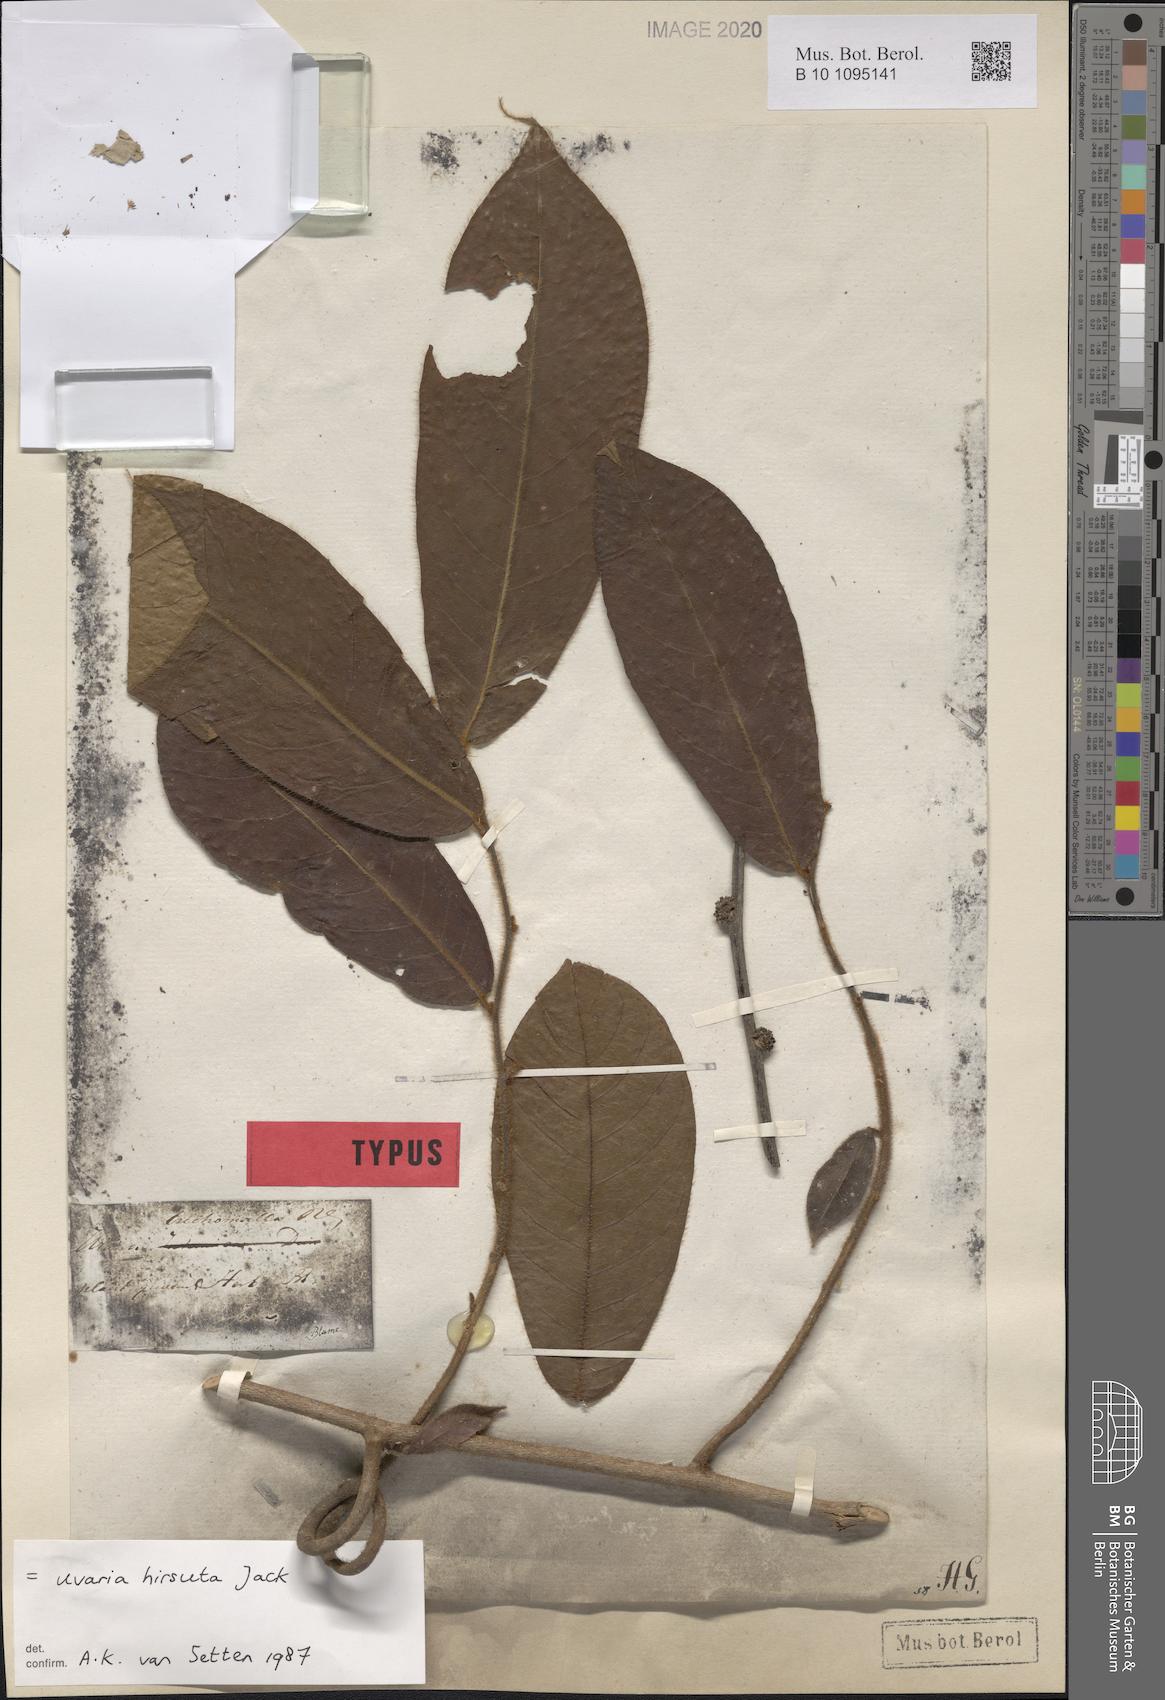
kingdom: Plantae
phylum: Tracheophyta
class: Magnoliopsida
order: Magnoliales
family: Annonaceae
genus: Uvaria
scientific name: Uvaria hirsuta
